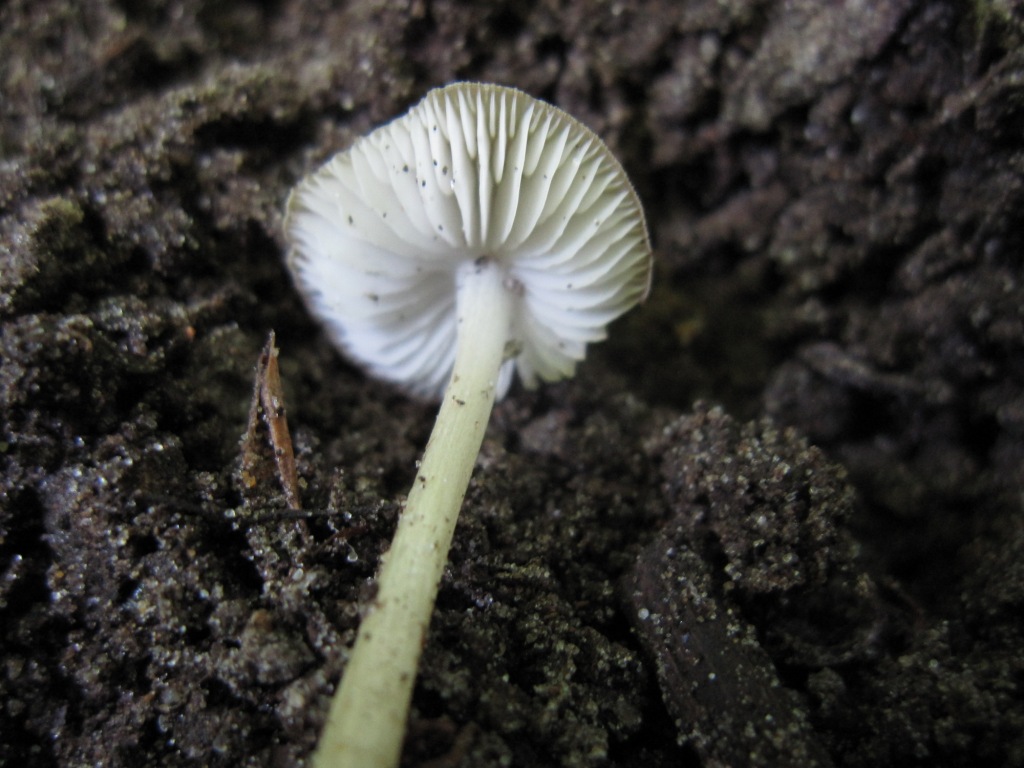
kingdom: Fungi
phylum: Basidiomycota
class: Agaricomycetes
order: Agaricales
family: Porotheleaceae
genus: Hydropodia
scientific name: Hydropodia subalpina
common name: vår-fnugfod
